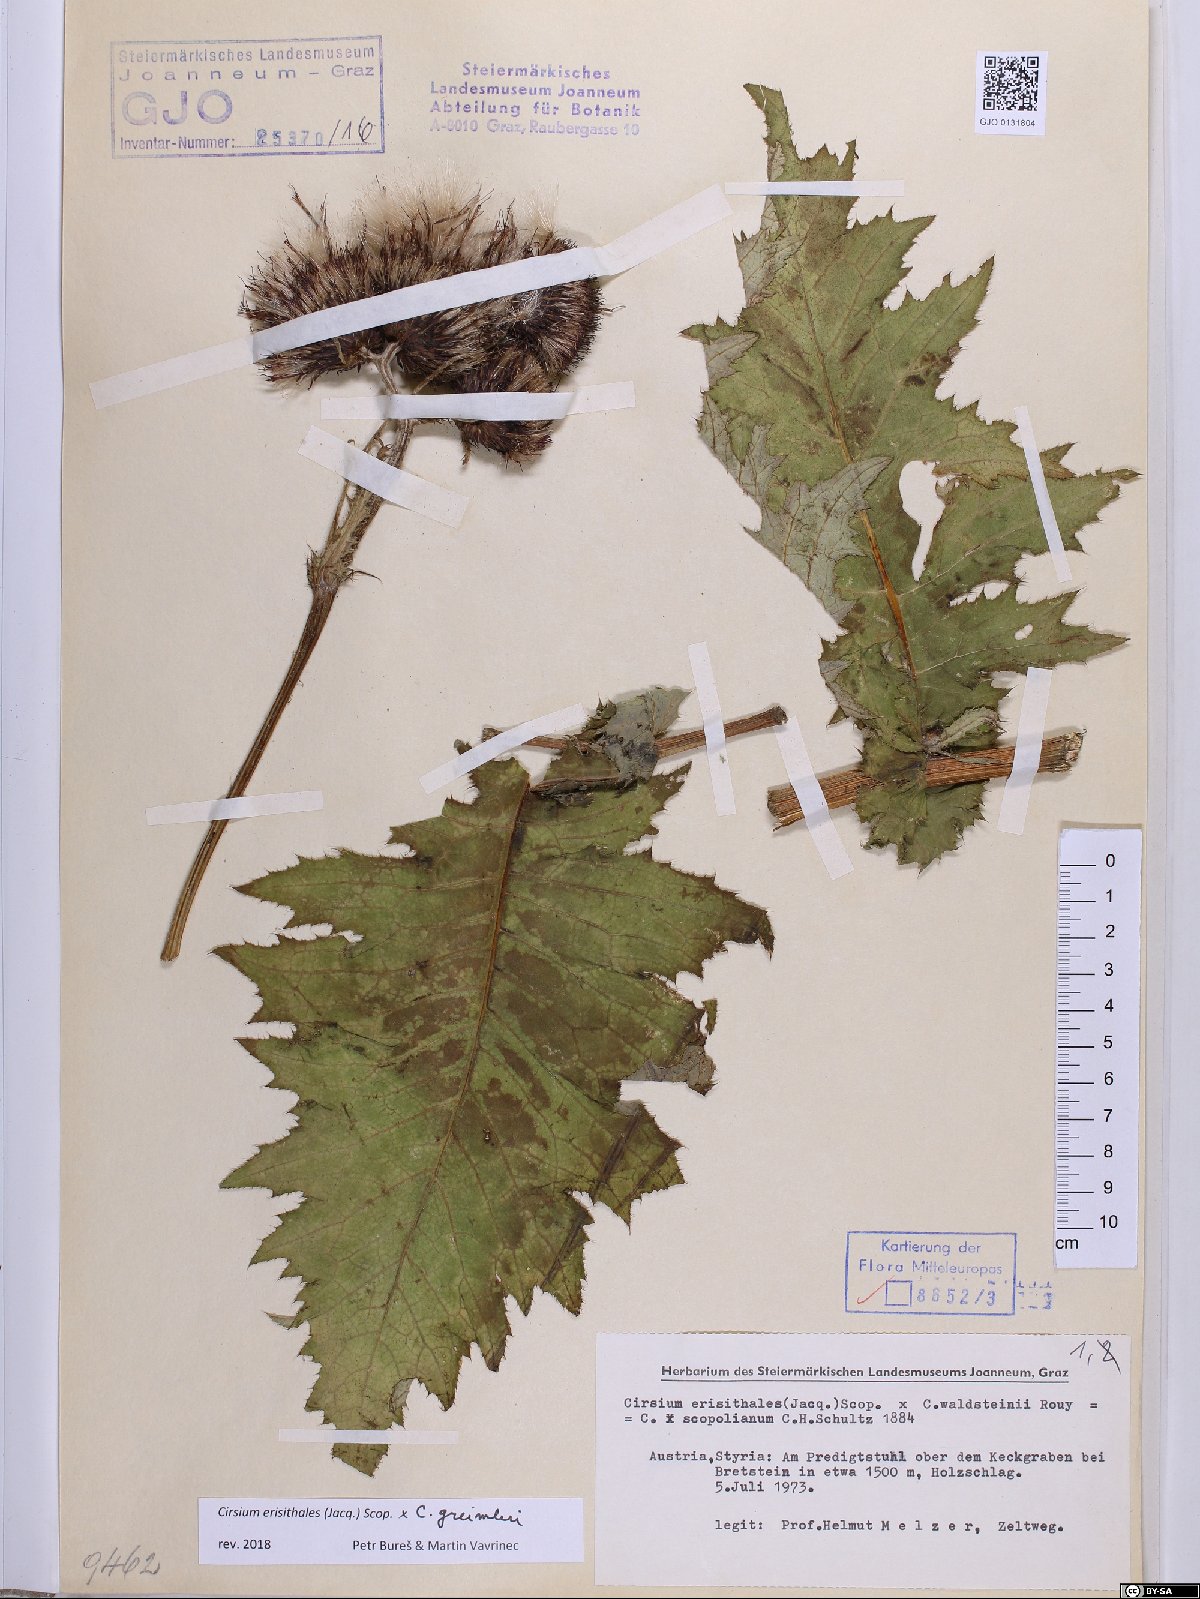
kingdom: Plantae
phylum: Tracheophyta
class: Magnoliopsida
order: Asterales
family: Asteraceae
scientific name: Asteraceae
